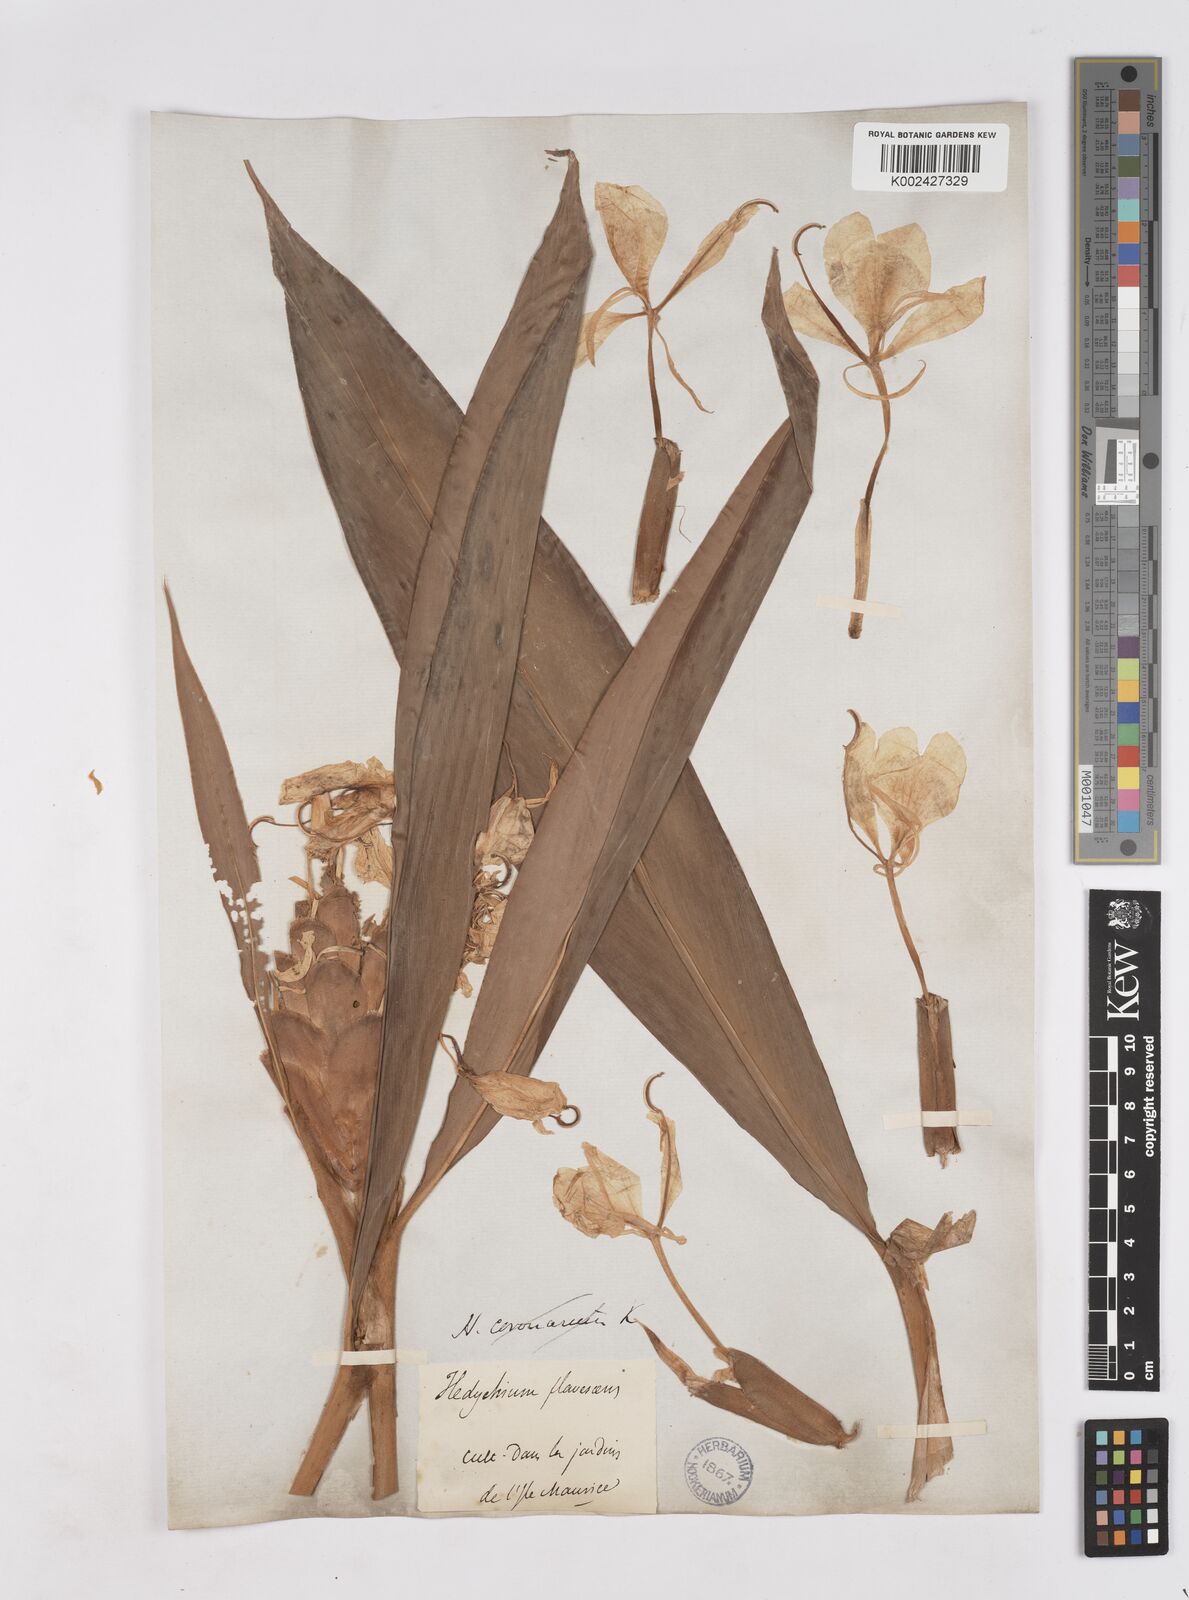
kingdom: Plantae
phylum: Tracheophyta
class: Liliopsida
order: Zingiberales
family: Zingiberaceae
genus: Hedychium
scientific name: Hedychium flavescens
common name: Yellow ginger
